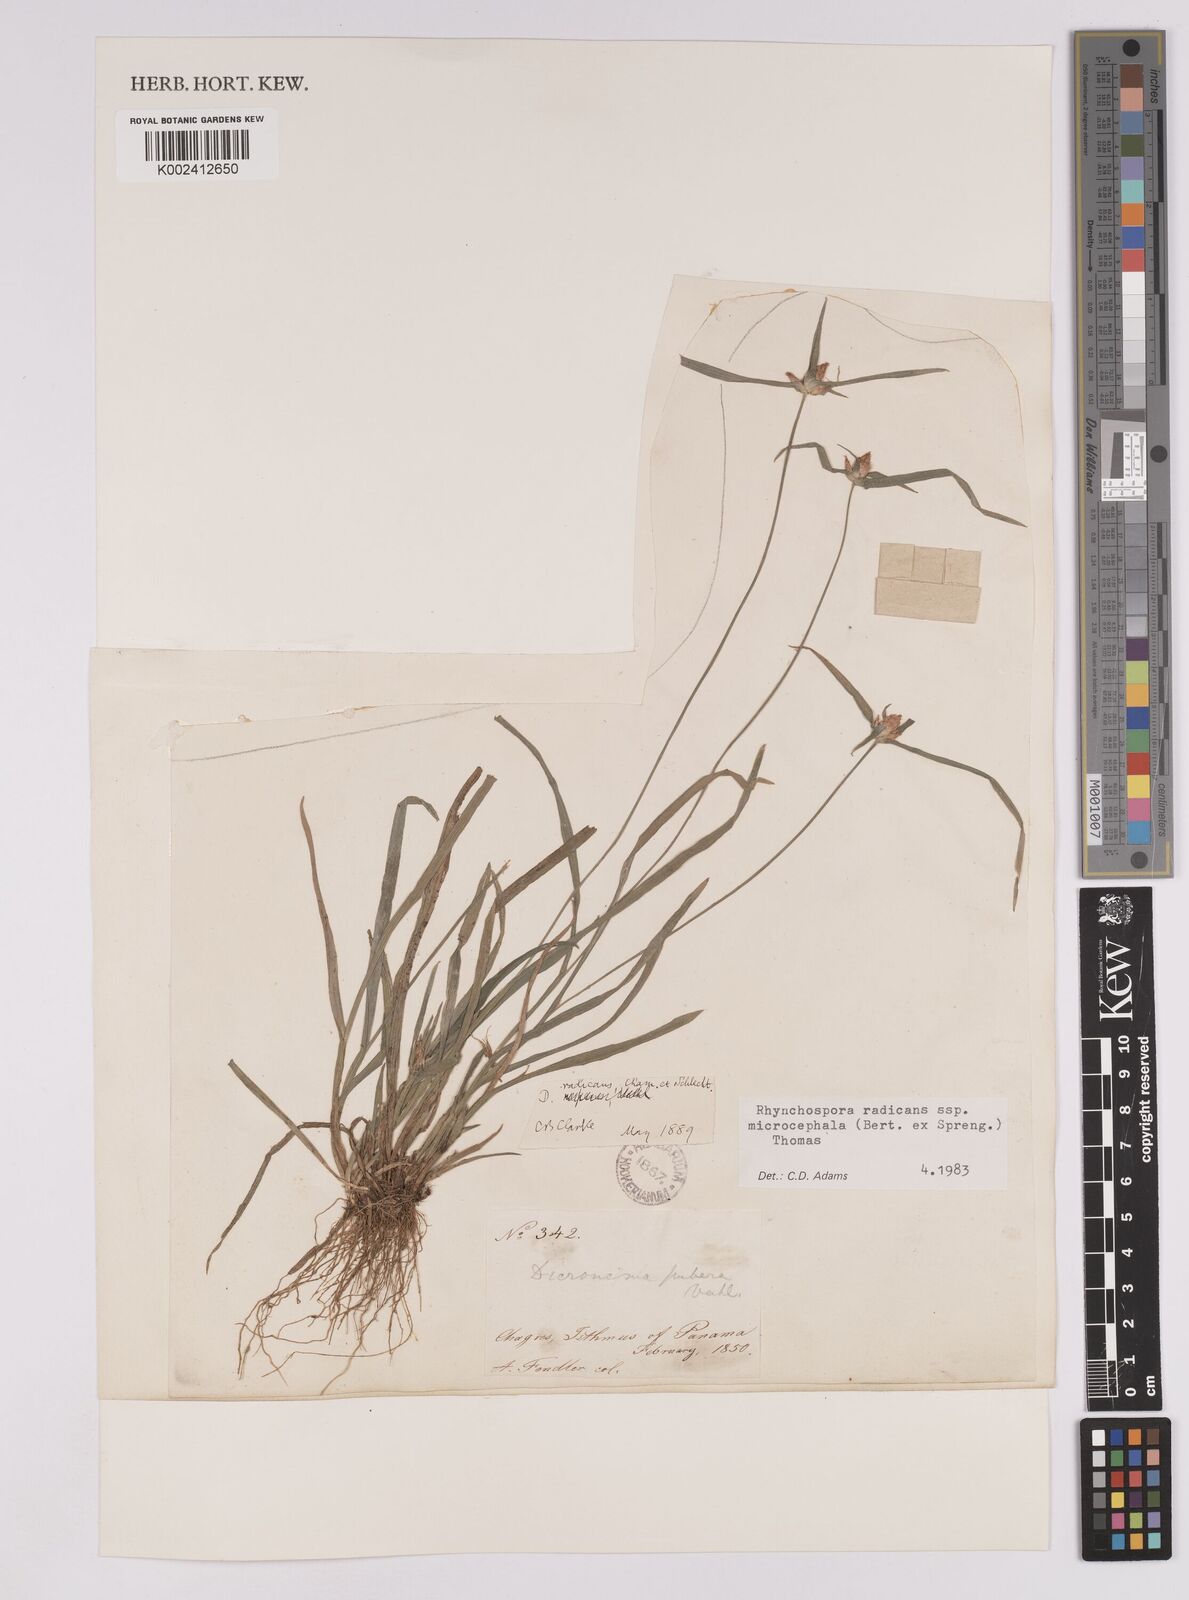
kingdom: Plantae
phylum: Tracheophyta
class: Liliopsida
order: Poales
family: Cyperaceae
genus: Rhynchospora
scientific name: Rhynchospora radicans
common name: Tropical whitetop
